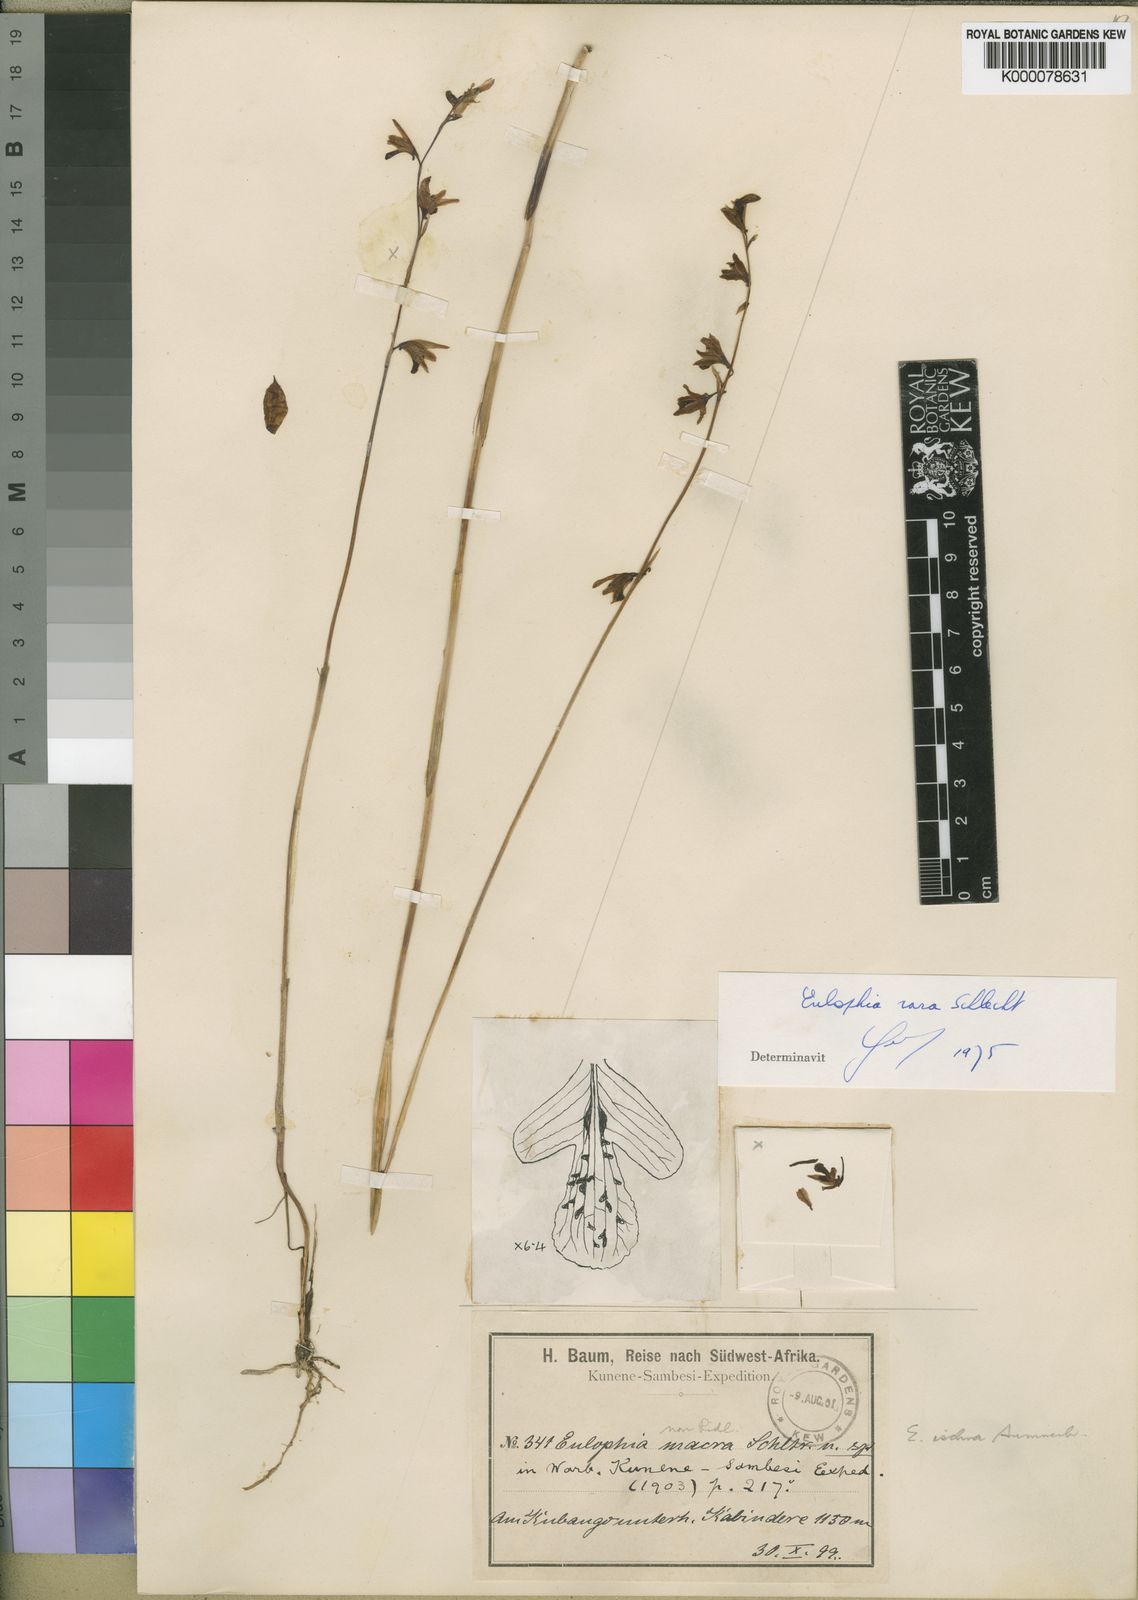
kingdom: Plantae
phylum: Tracheophyta
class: Liliopsida
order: Asparagales
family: Orchidaceae
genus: Eulophia
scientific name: Eulophia trilamellata
